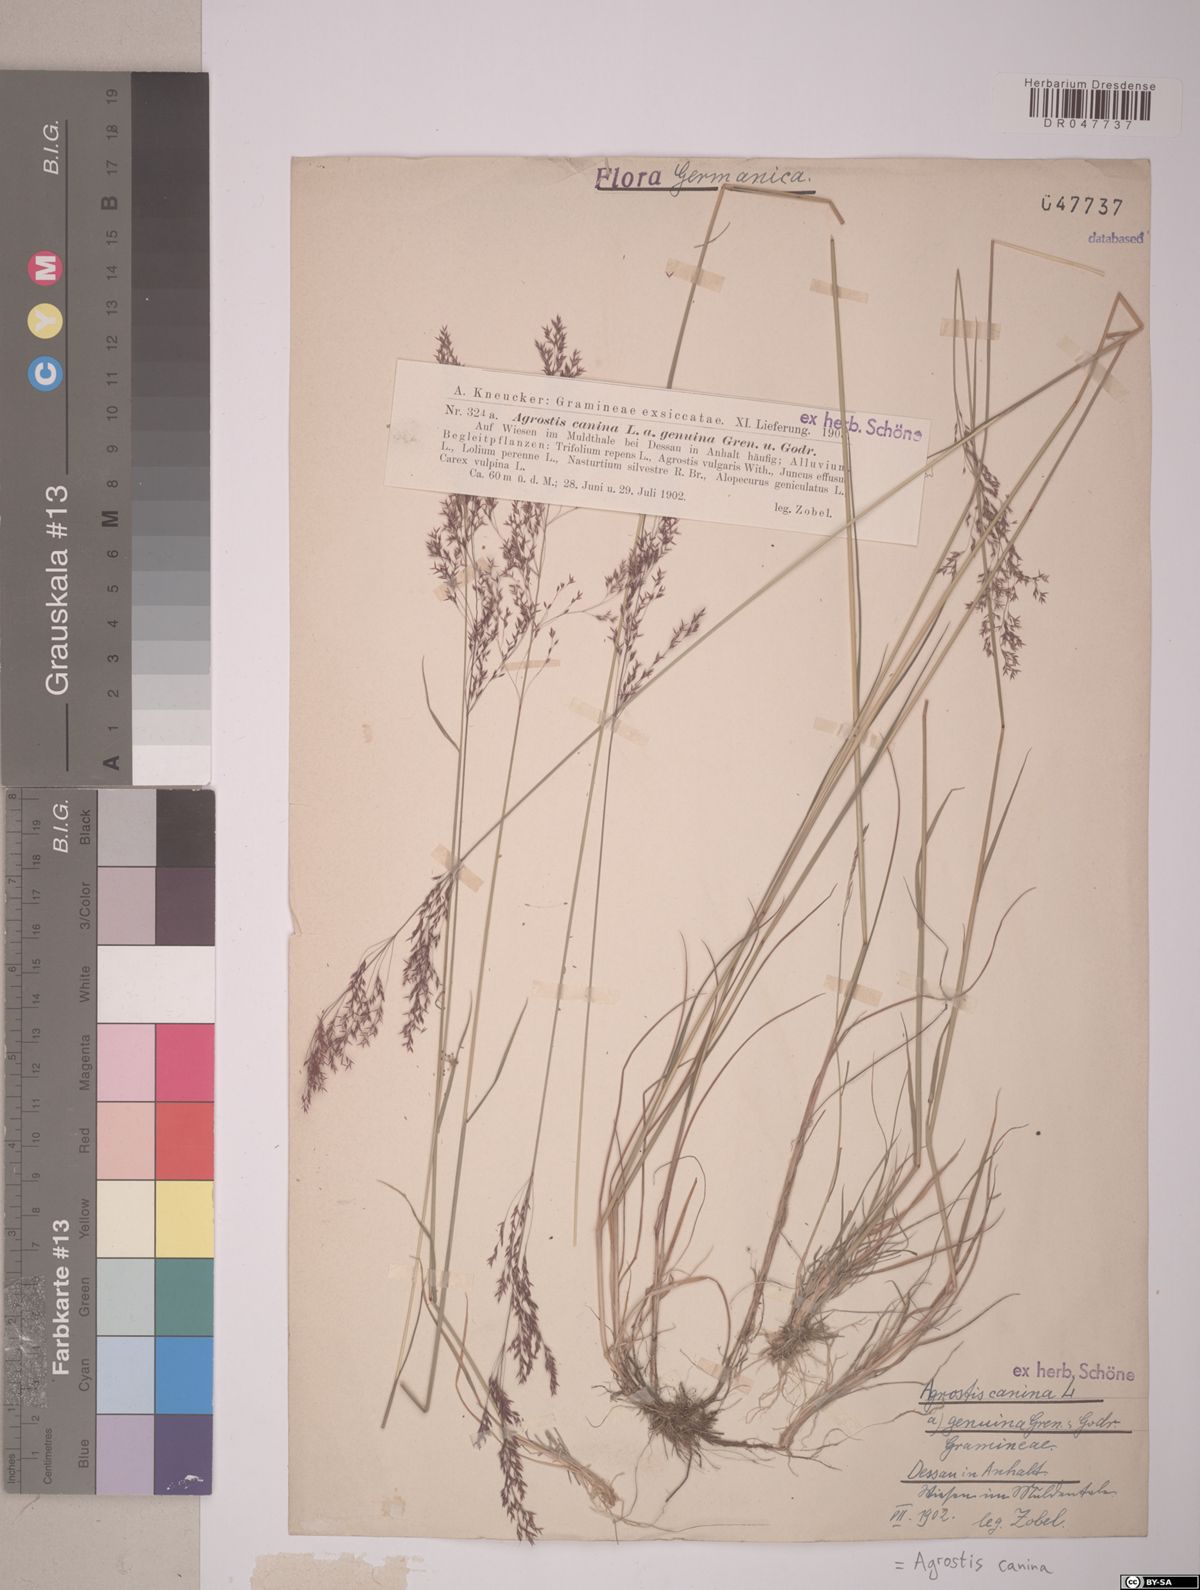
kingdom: Plantae
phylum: Tracheophyta
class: Liliopsida
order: Poales
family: Poaceae
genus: Agrostis
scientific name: Agrostis canina
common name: Velvet bent
